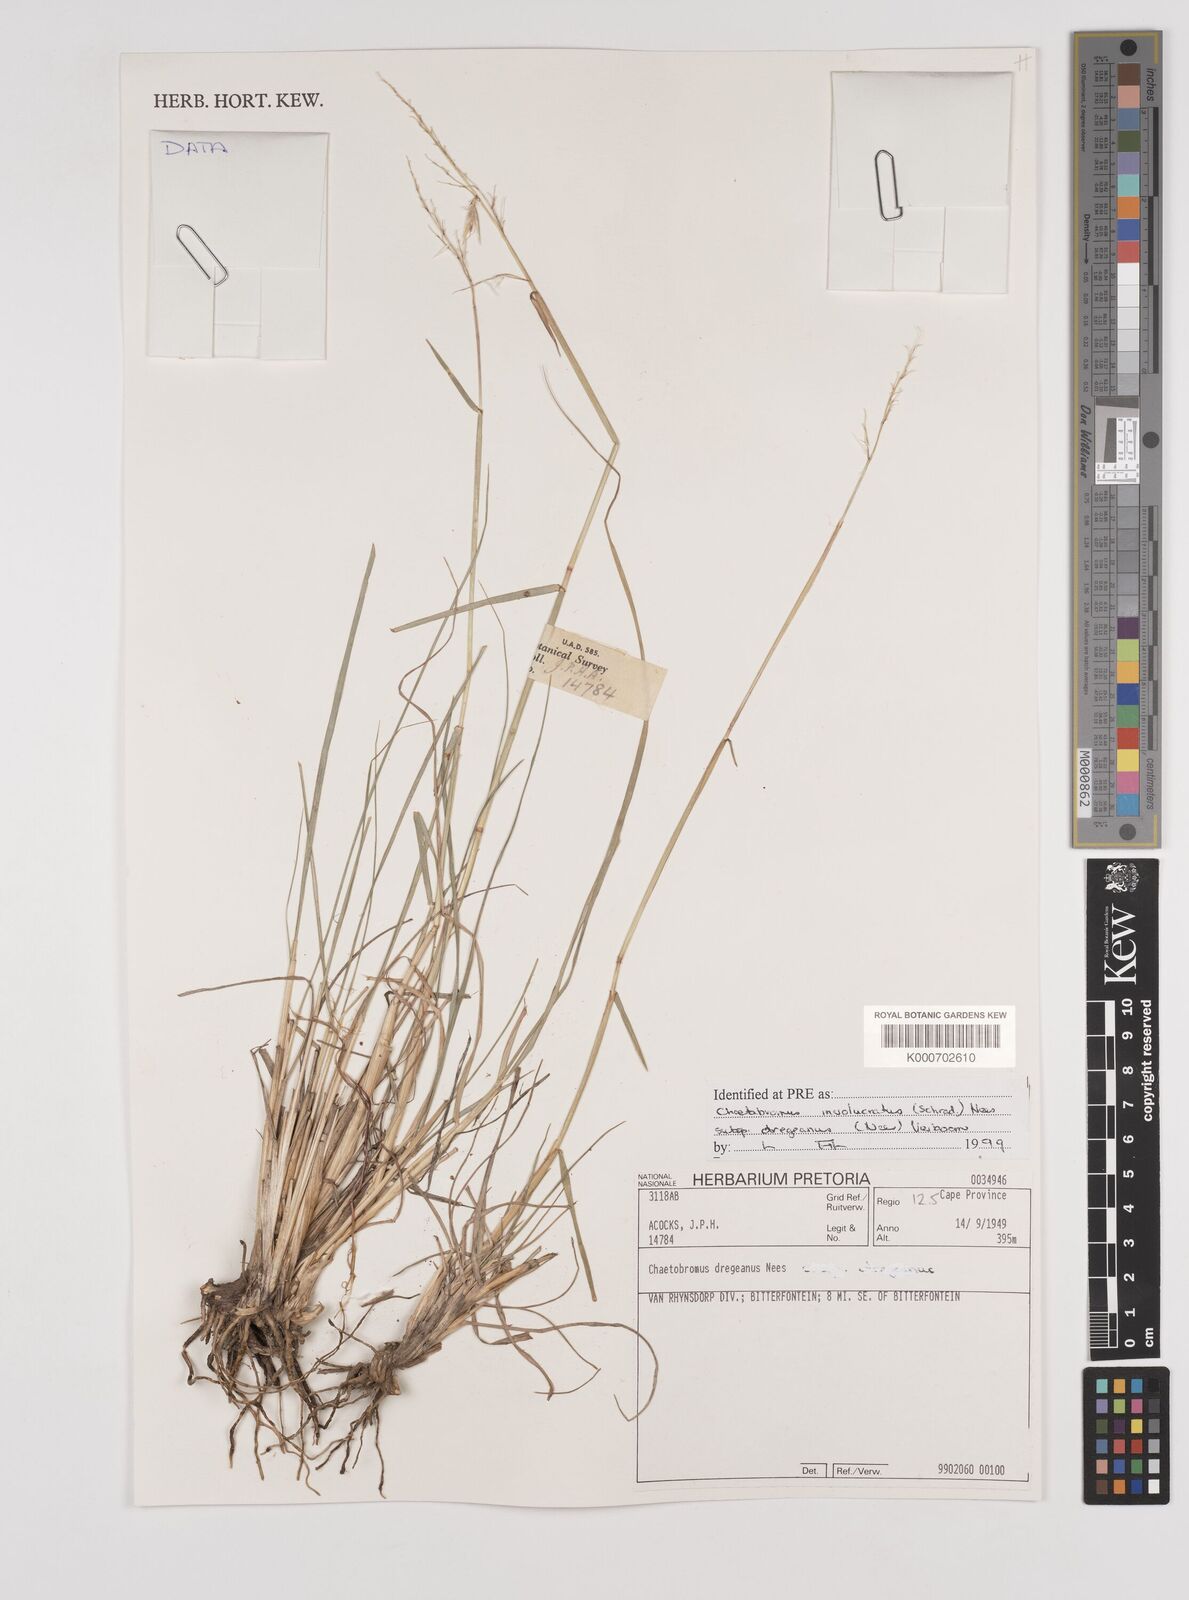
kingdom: Plantae
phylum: Tracheophyta
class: Liliopsida
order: Poales
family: Poaceae
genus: Chaetobromus
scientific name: Chaetobromus involucratus
